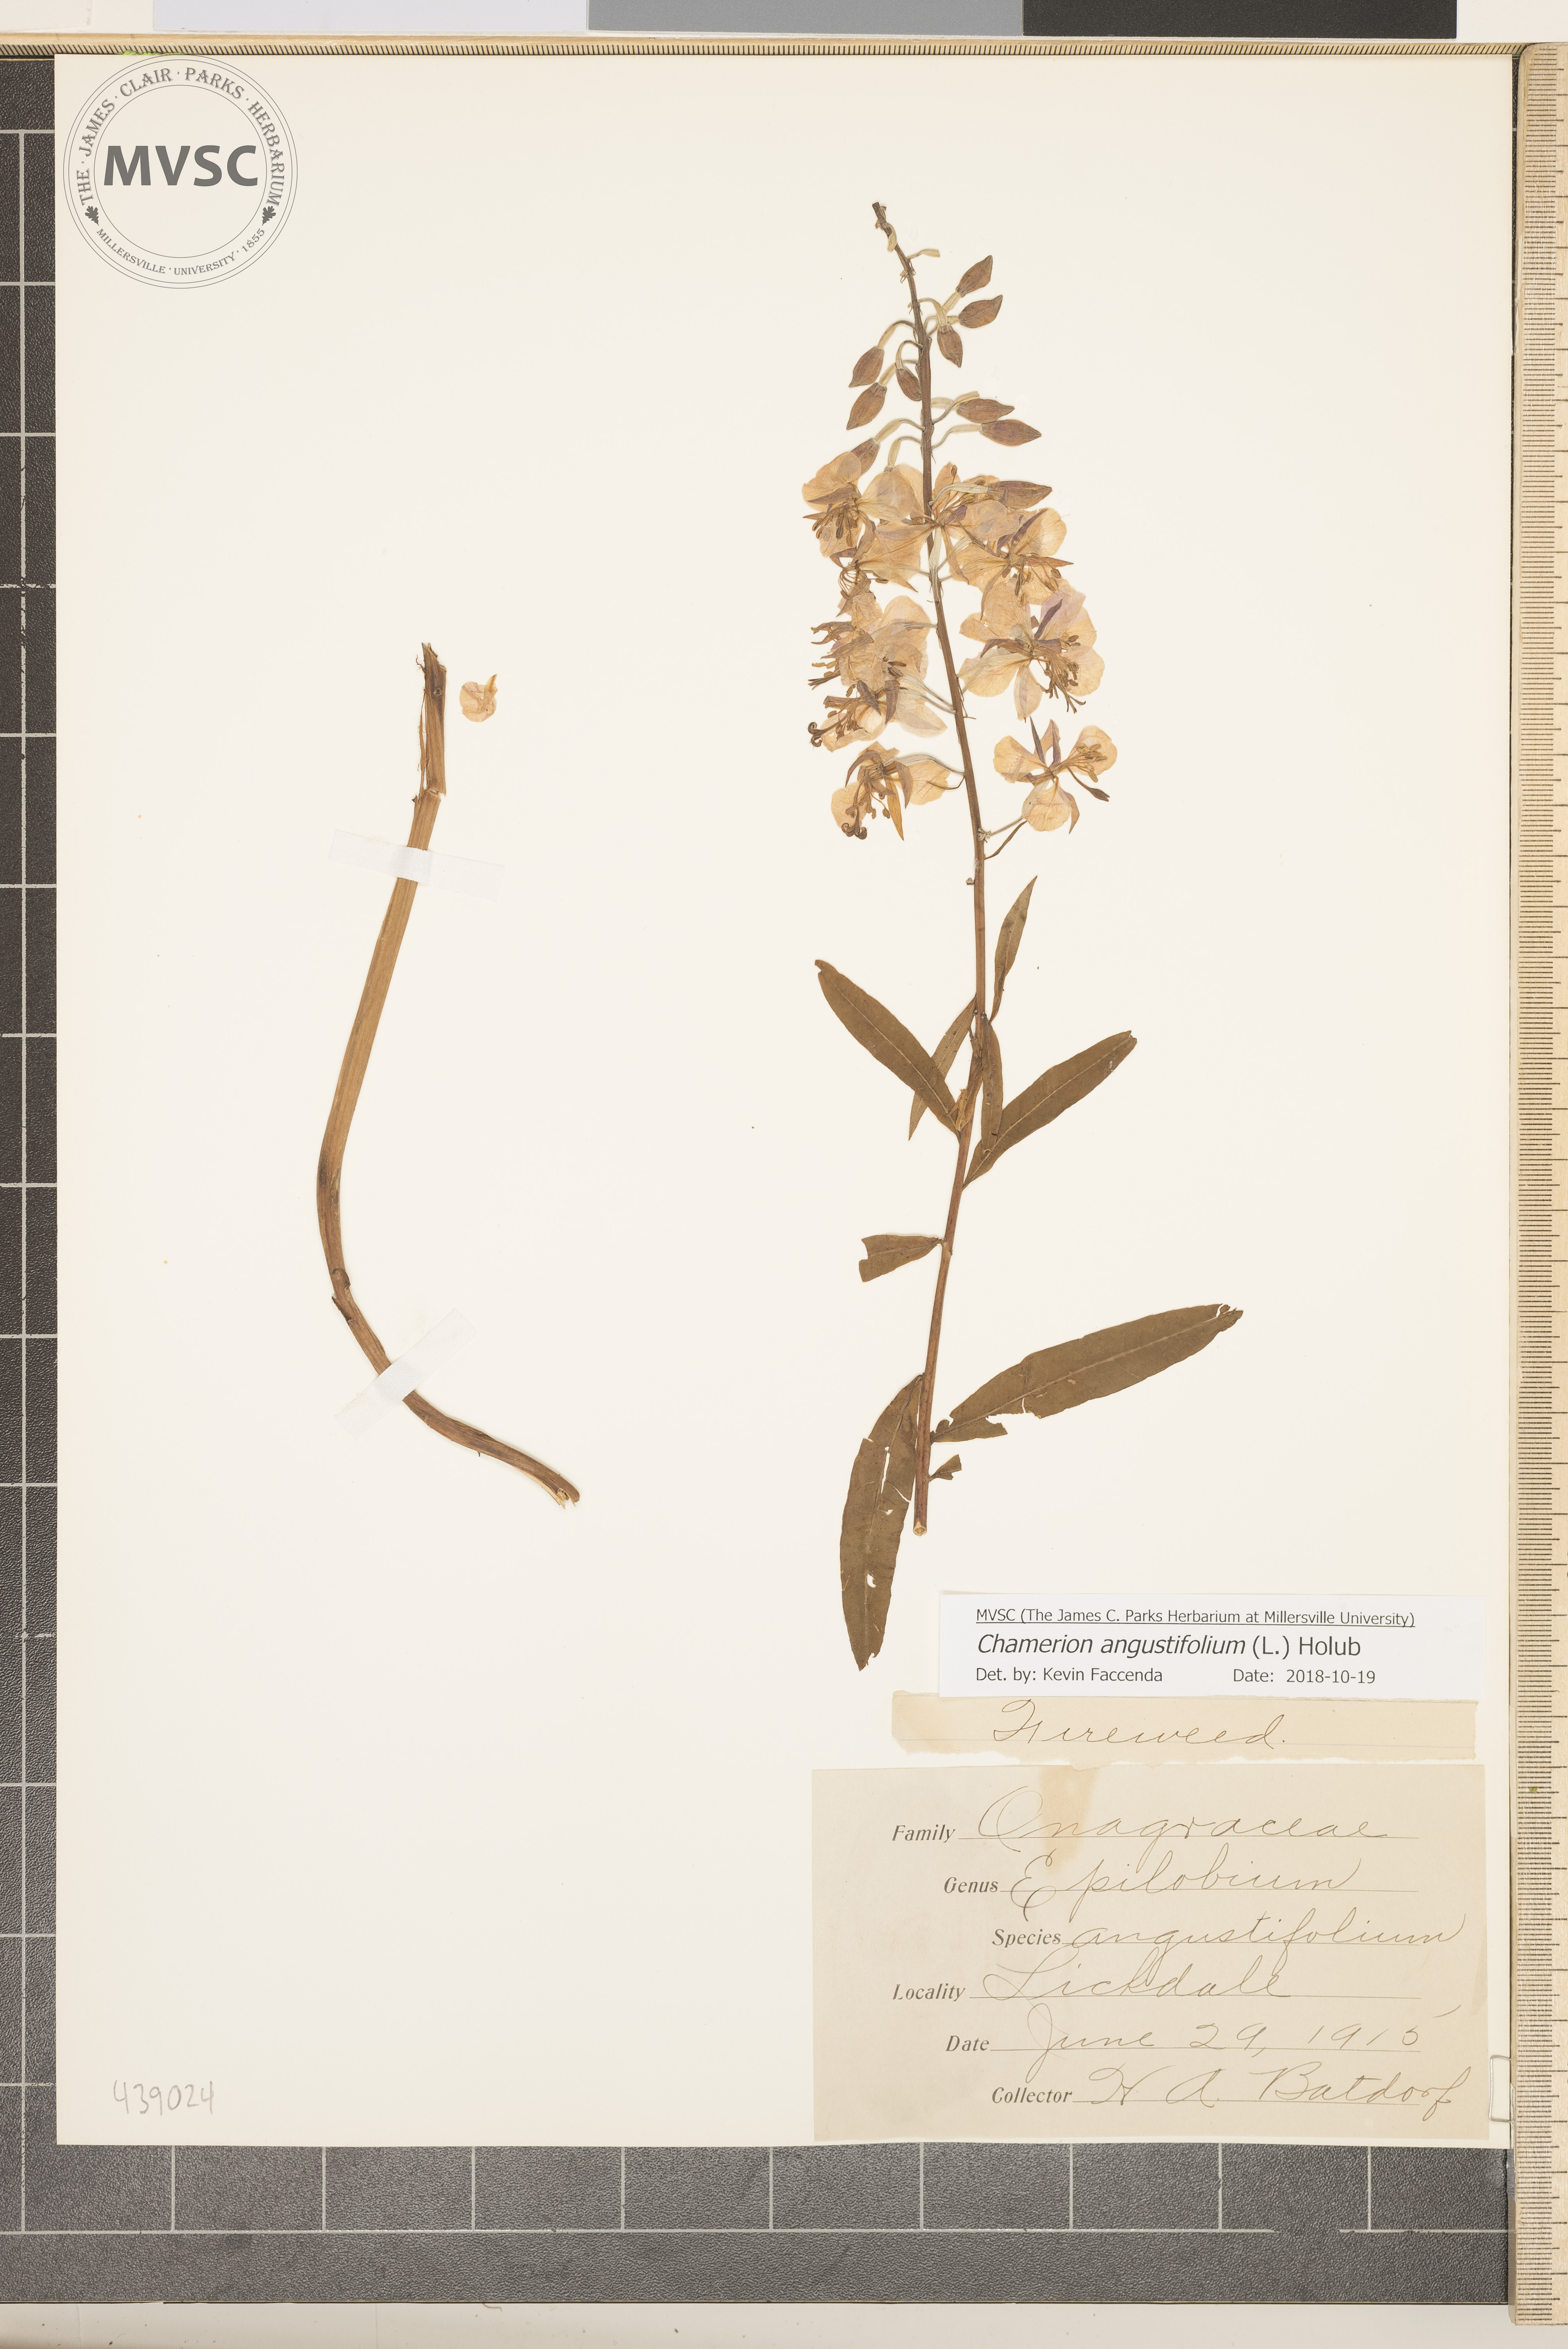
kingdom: Plantae
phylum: Tracheophyta
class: Magnoliopsida
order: Myrtales
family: Onagraceae
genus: Chamaenerion
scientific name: Chamaenerion angustifolium
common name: Fireweed
